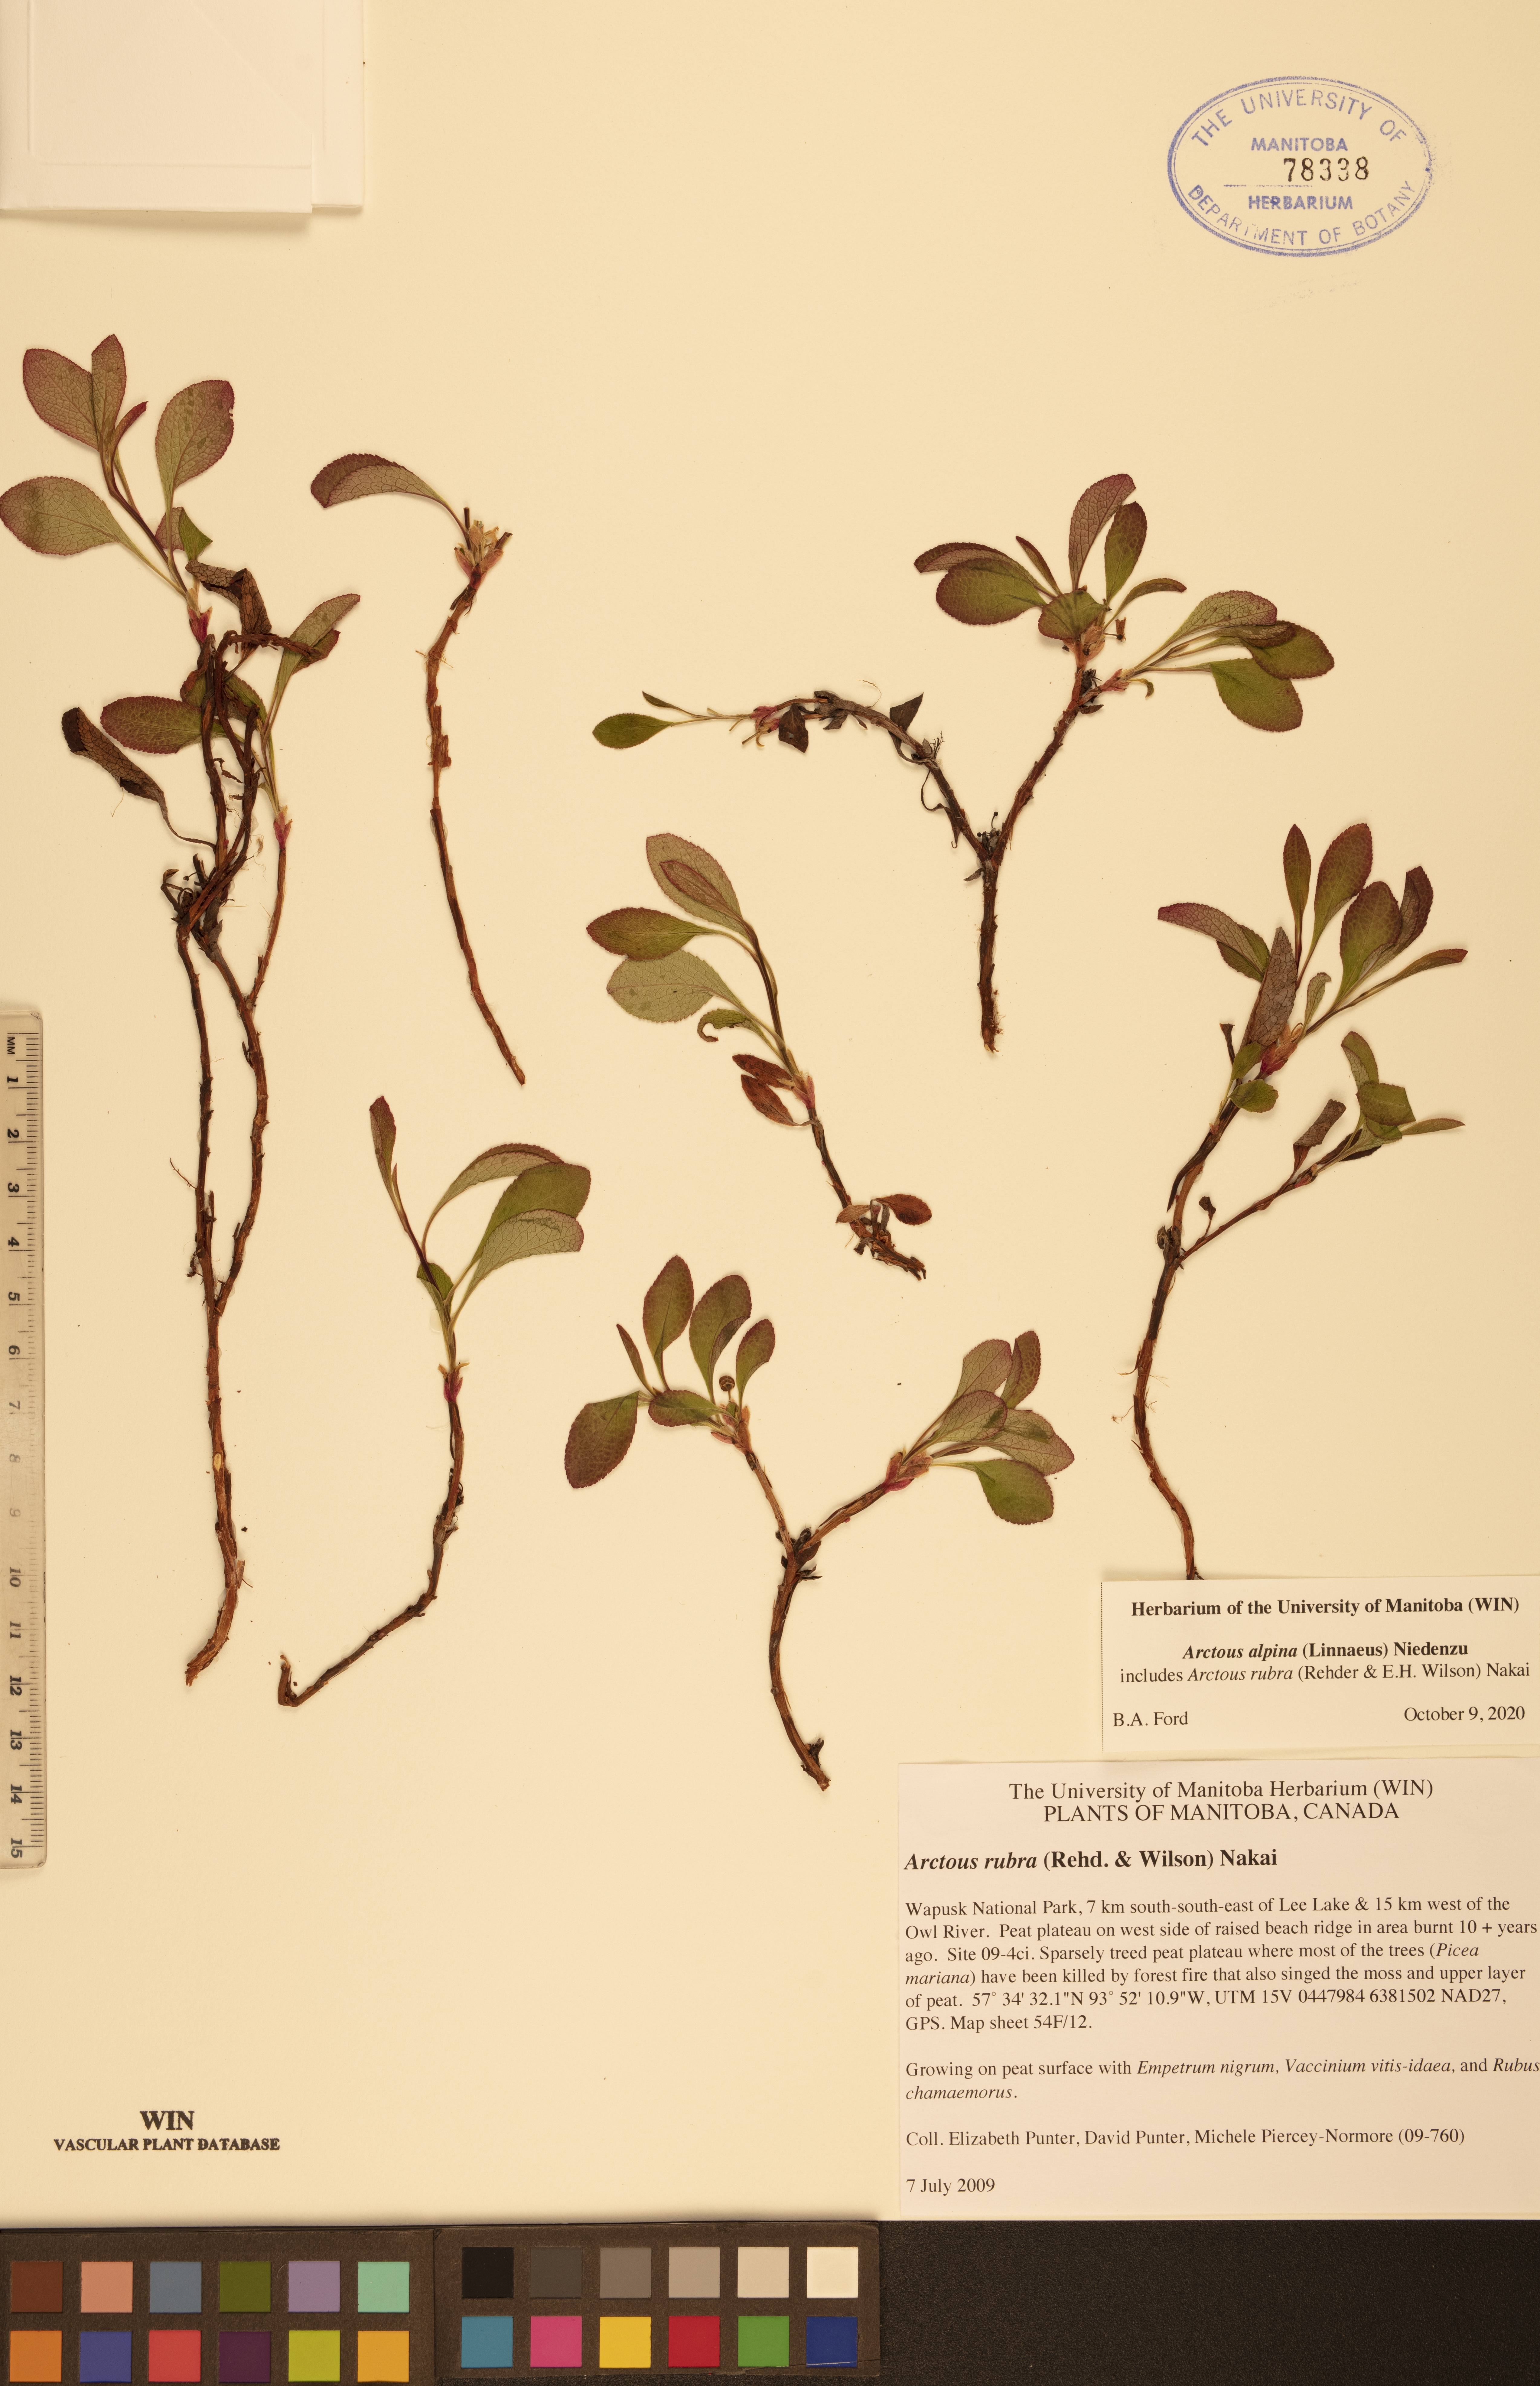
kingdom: Plantae
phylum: Tracheophyta
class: Magnoliopsida
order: Ericales
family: Ericaceae
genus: Arctostaphylos
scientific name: Arctostaphylos alpinus
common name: Alpine bearberry
